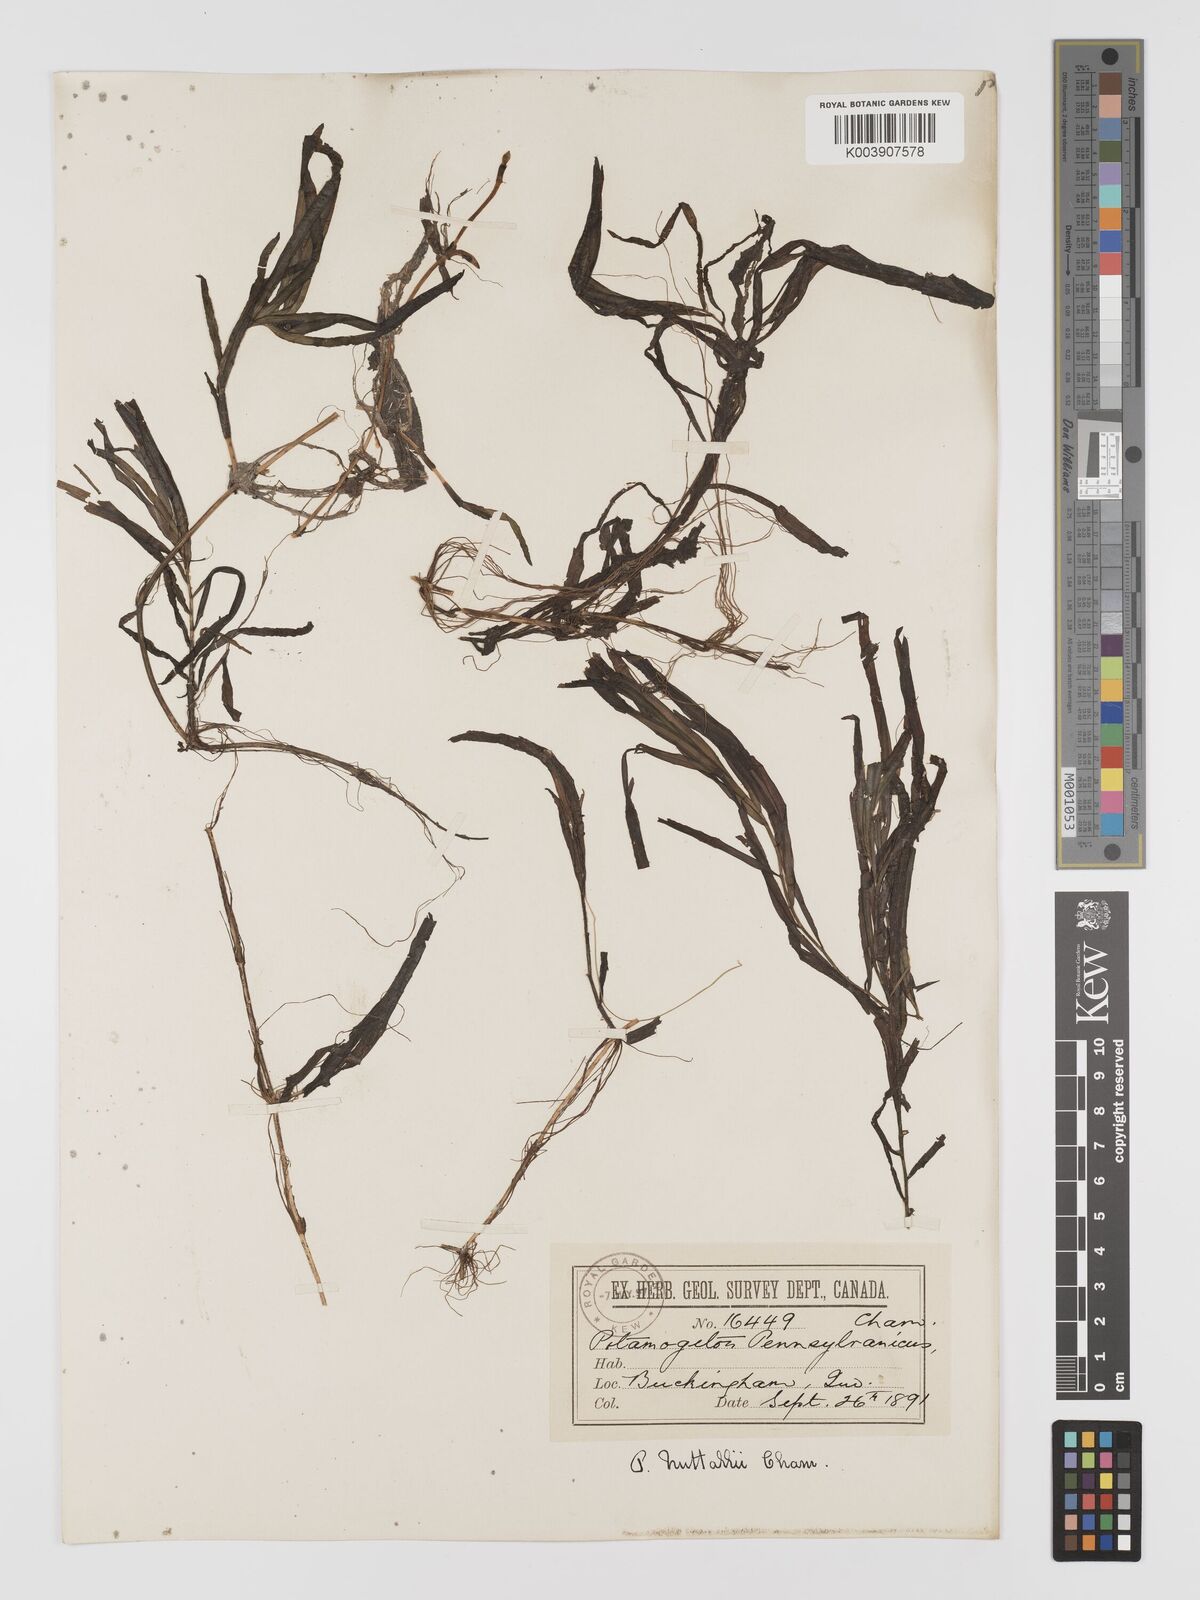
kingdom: Plantae
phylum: Tracheophyta
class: Liliopsida
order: Alismatales
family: Potamogetonaceae
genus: Potamogeton
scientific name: Potamogeton epihydrus
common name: American pondweed
